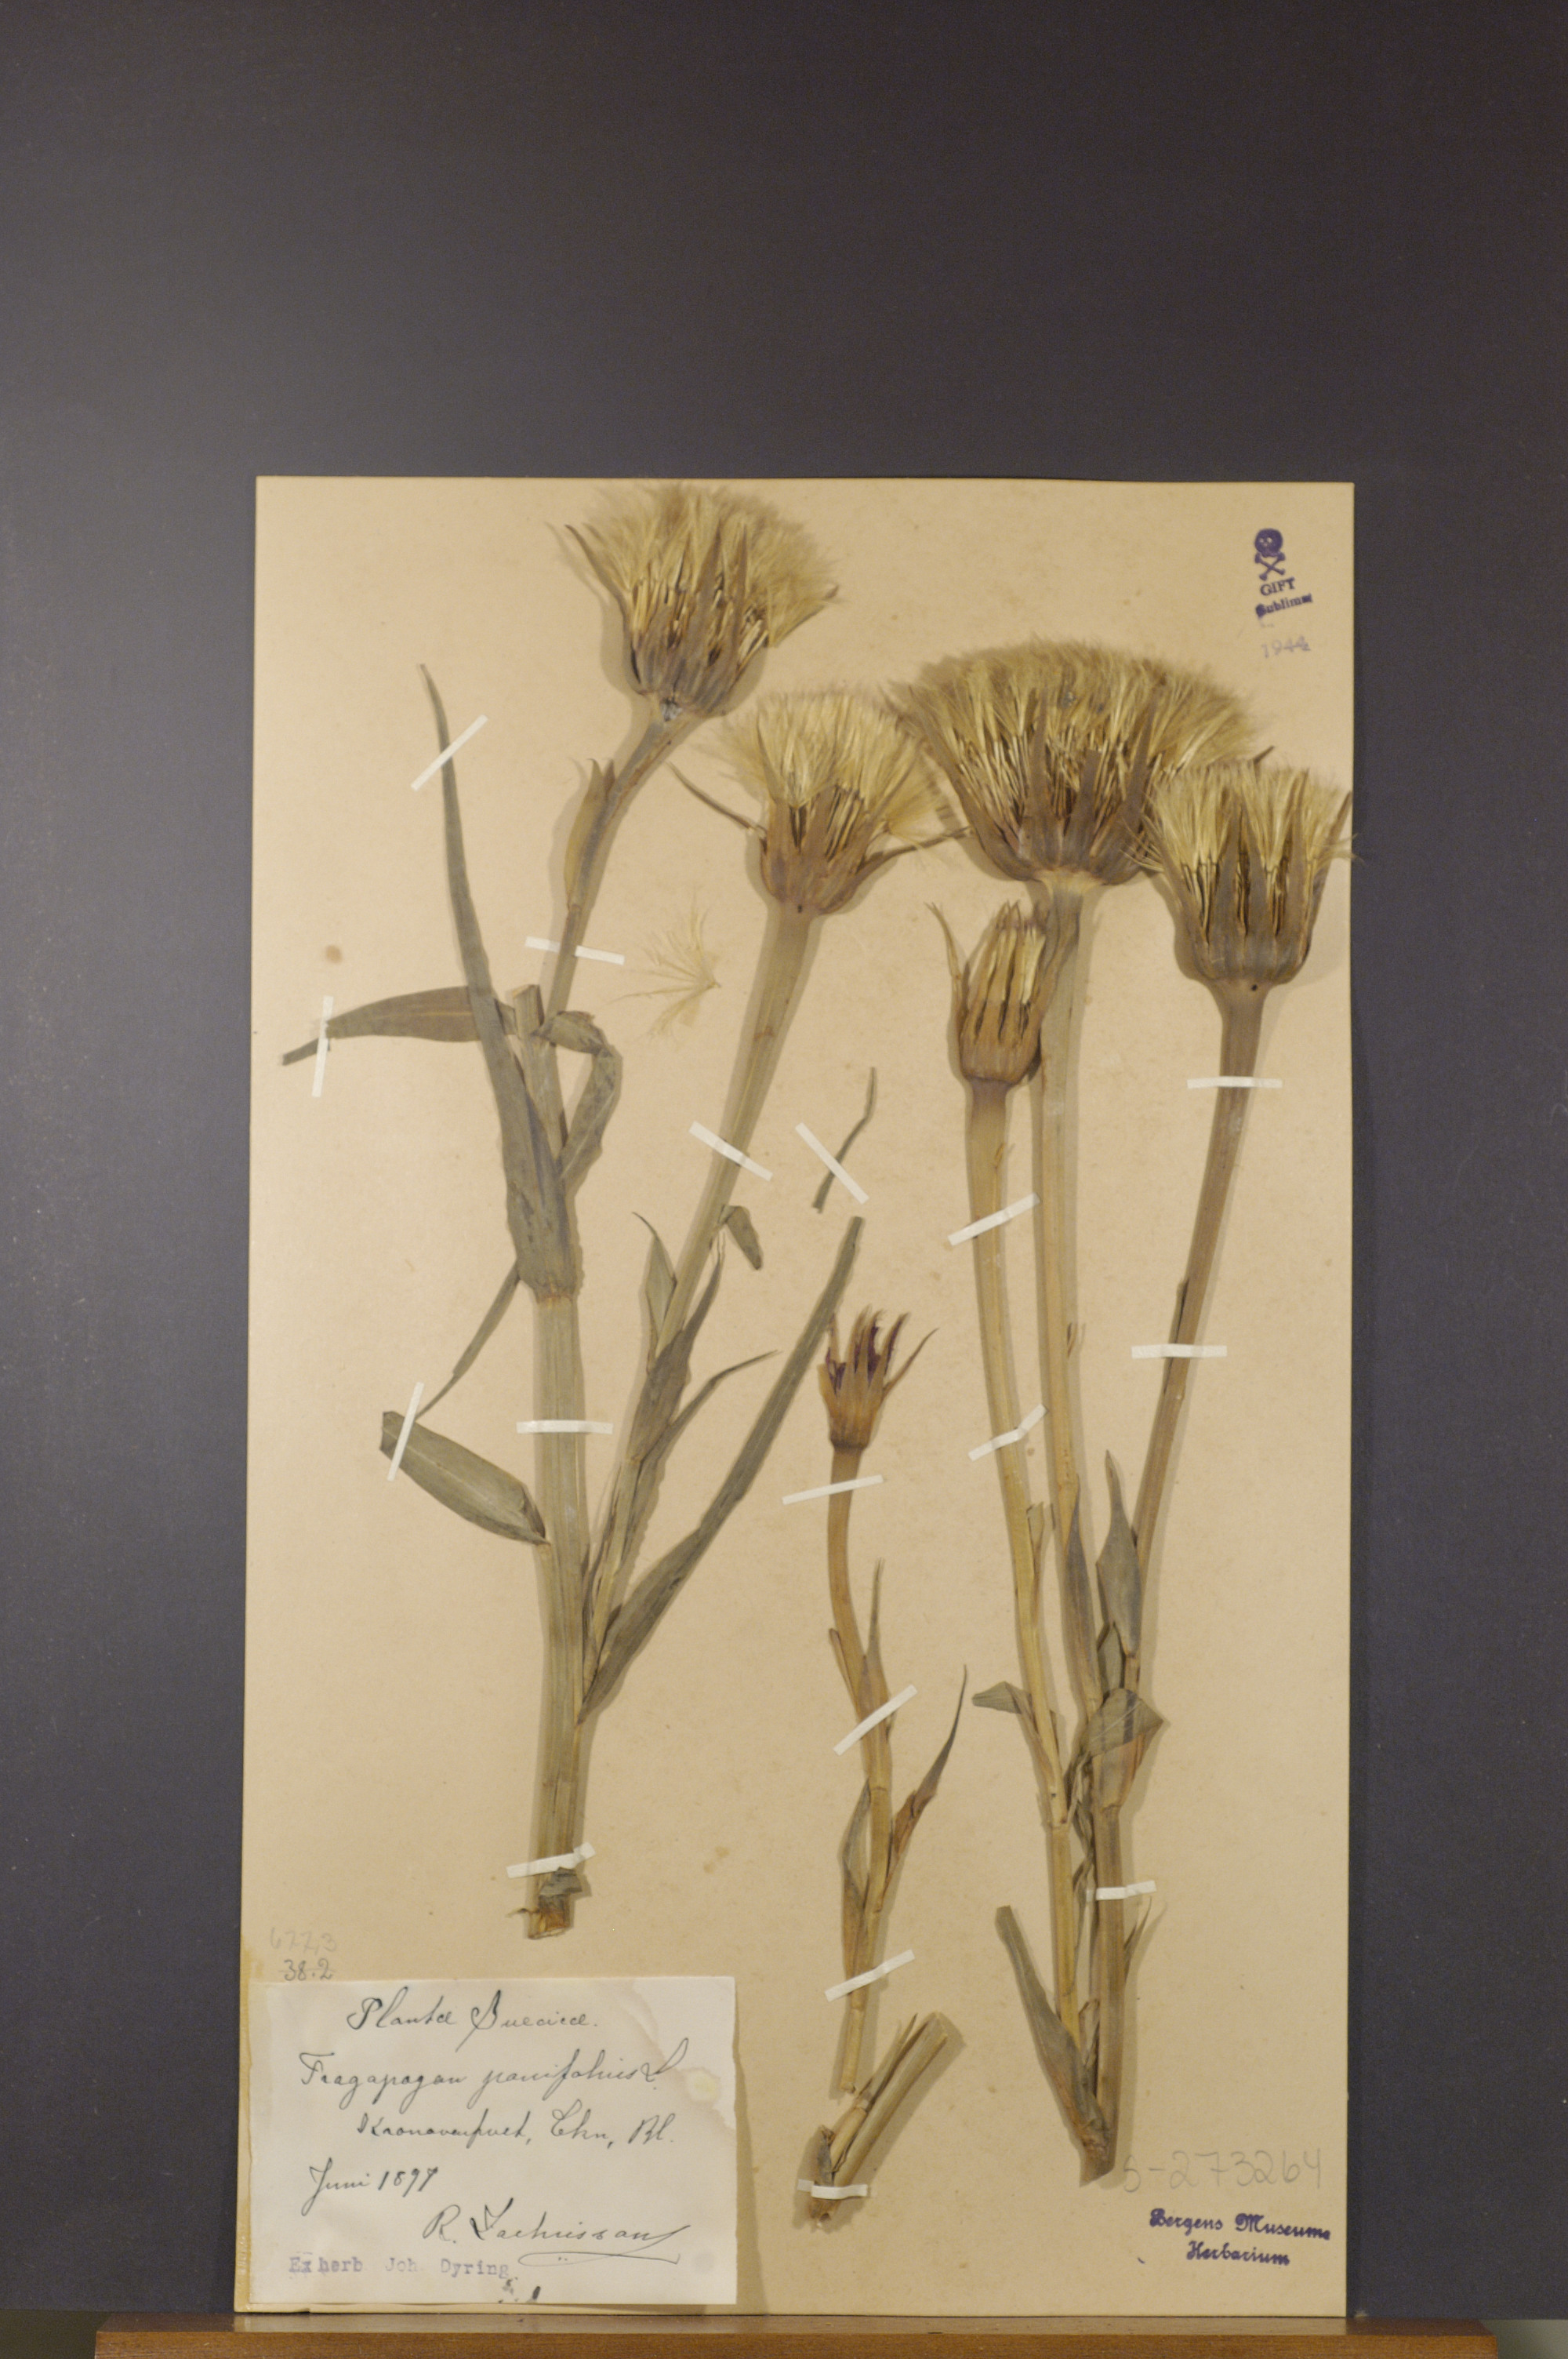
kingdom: Plantae
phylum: Tracheophyta
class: Magnoliopsida
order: Asterales
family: Asteraceae
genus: Tragopogon
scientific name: Tragopogon porrifolius
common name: Salsify
